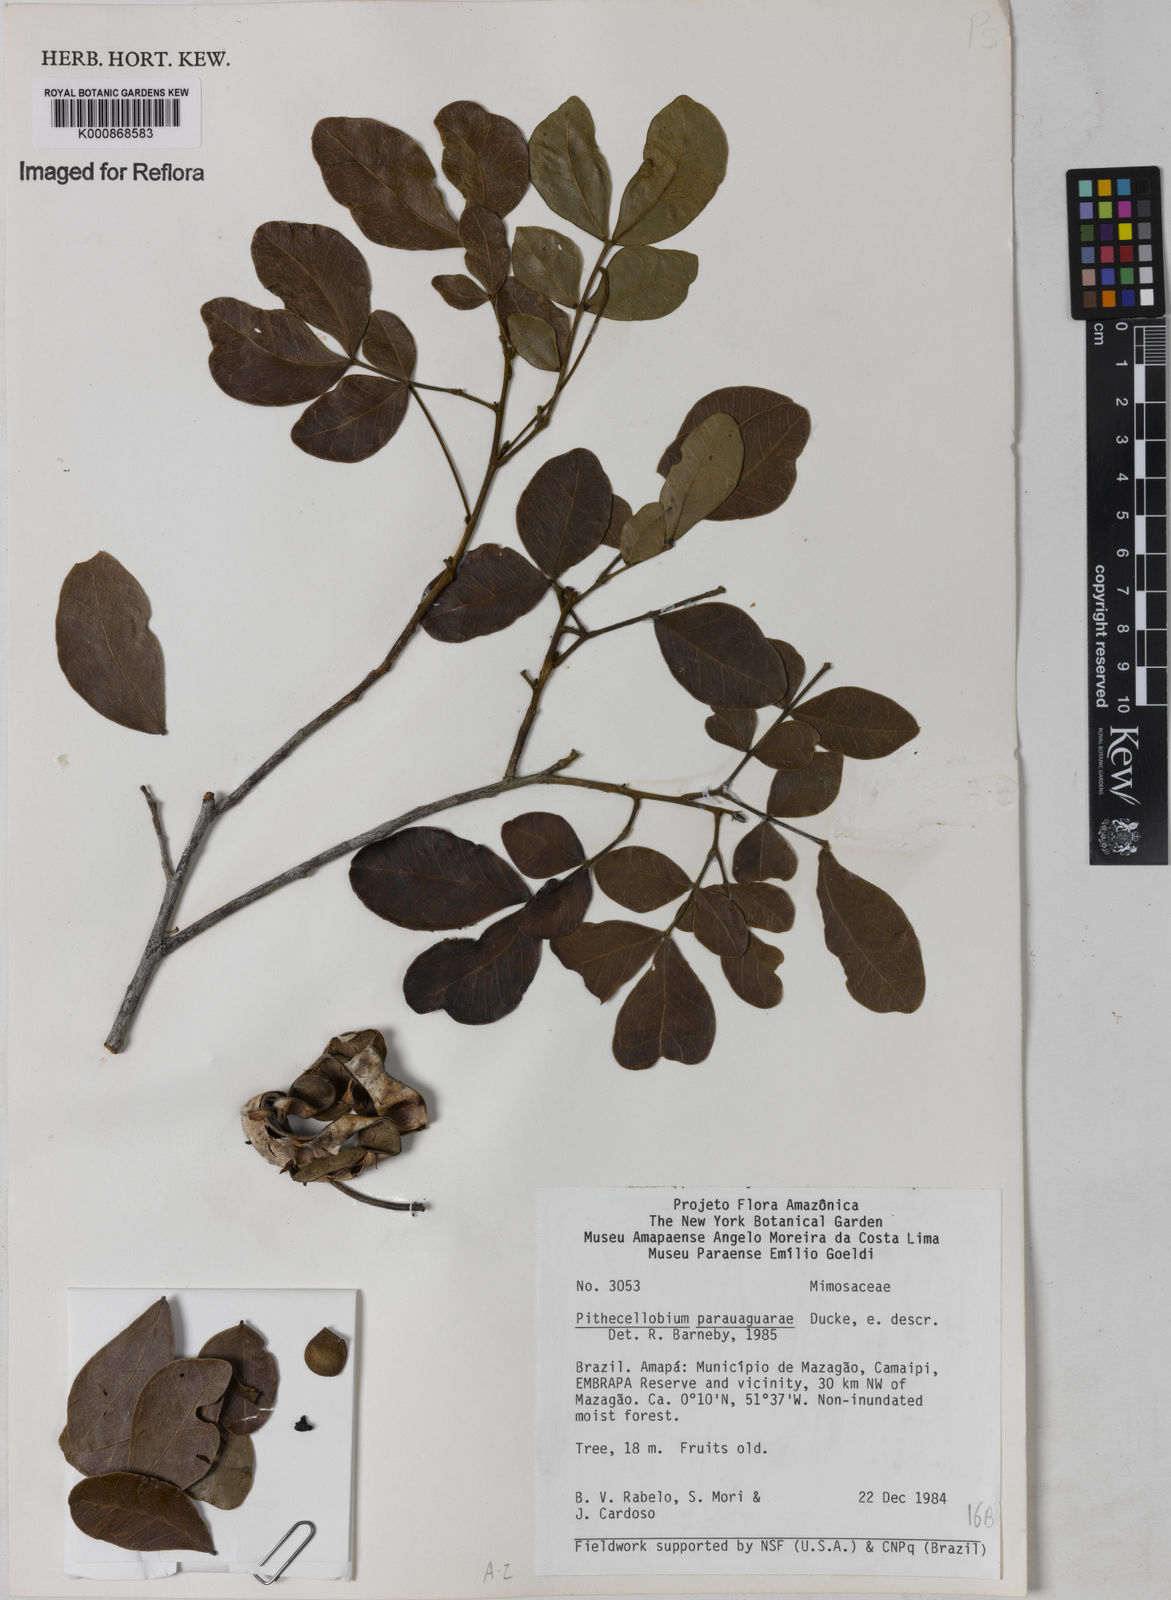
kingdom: Plantae
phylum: Tracheophyta
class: Magnoliopsida
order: Fabales
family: Fabaceae
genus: Abarema
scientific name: Abarema
